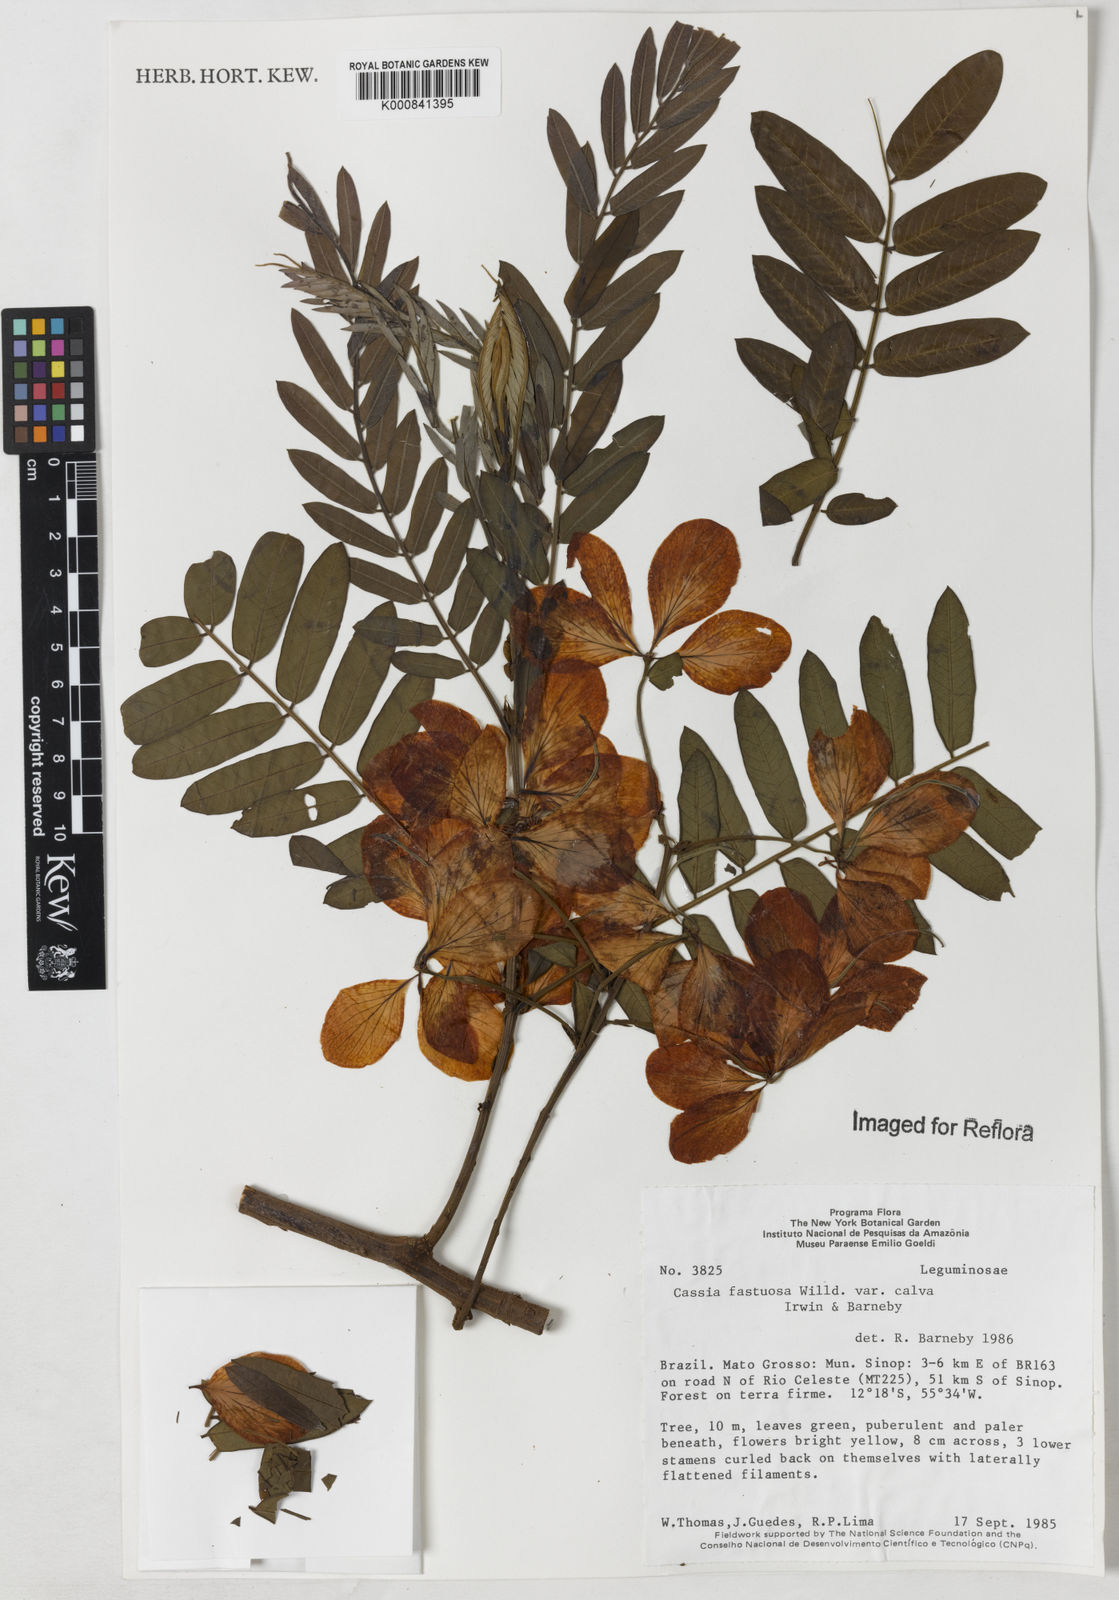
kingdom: Plantae
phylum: Tracheophyta
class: Magnoliopsida
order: Fabales
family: Fabaceae
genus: Cassia
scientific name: Cassia fastuosa
